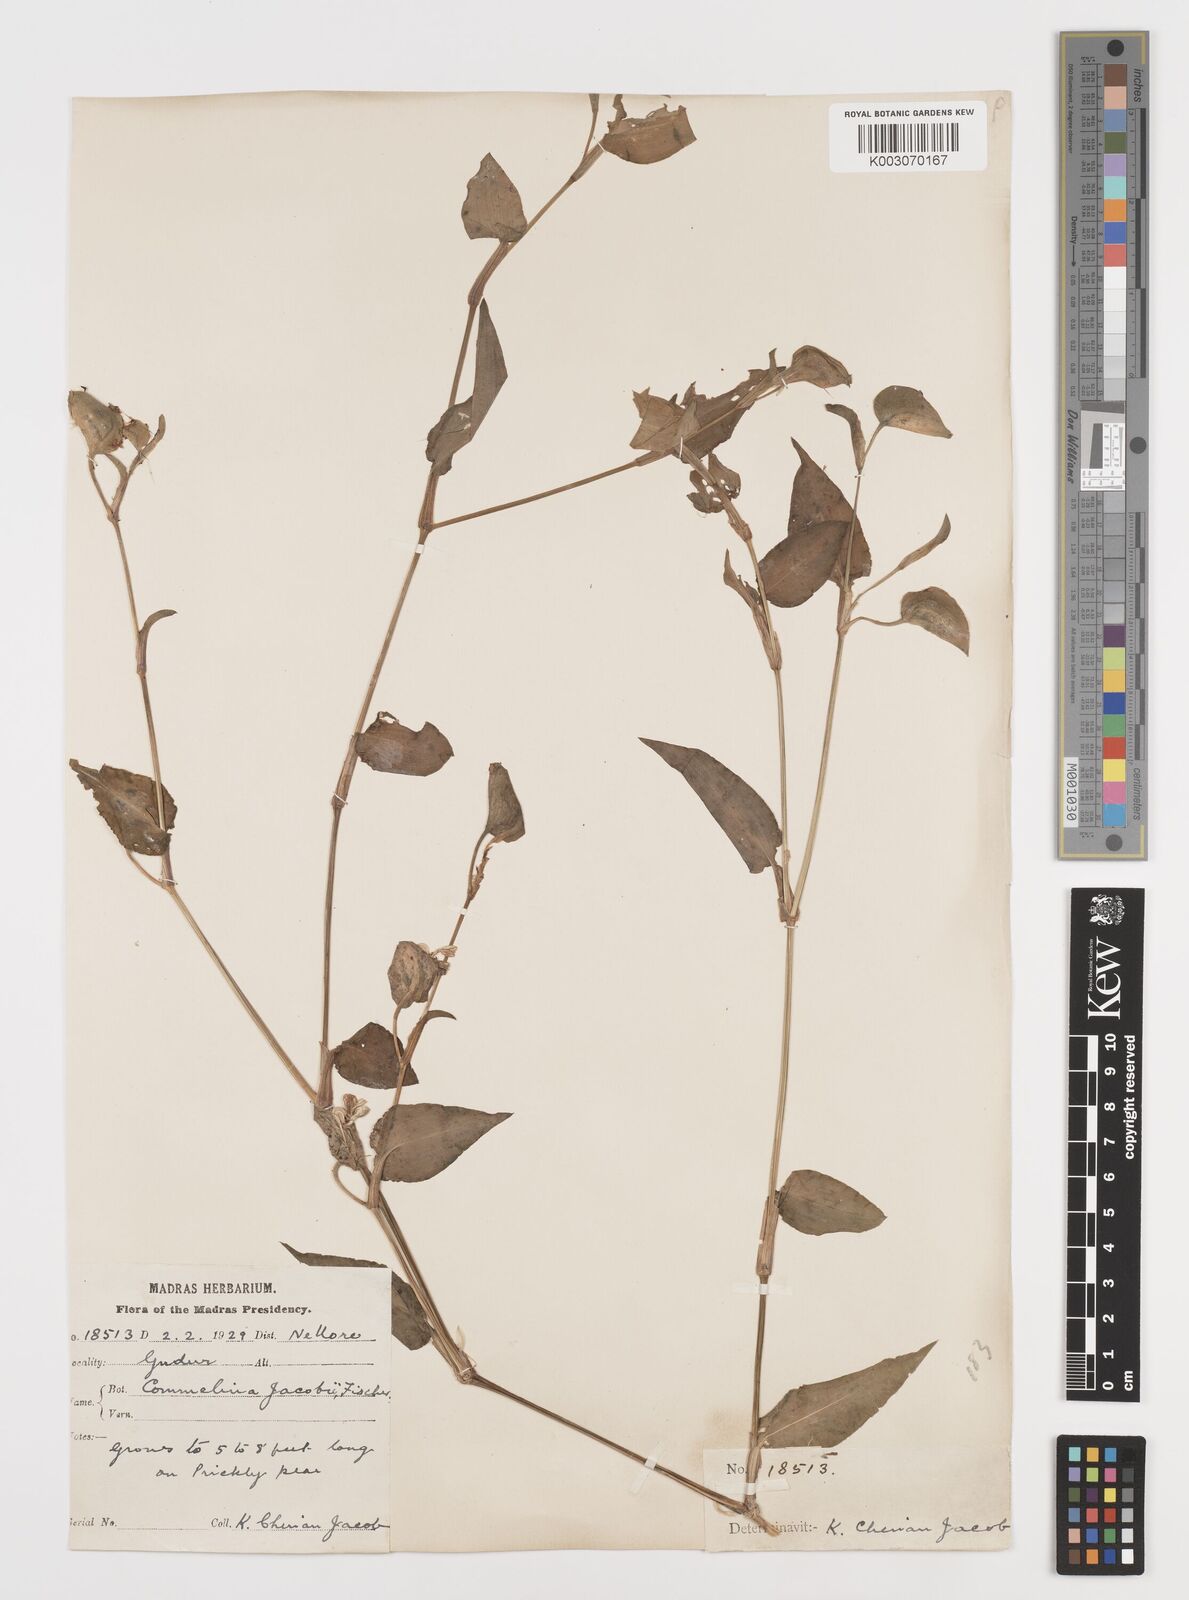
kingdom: Plantae
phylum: Tracheophyta
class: Liliopsida
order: Commelinales
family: Commelinaceae
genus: Commelina
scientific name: Commelina petersii
